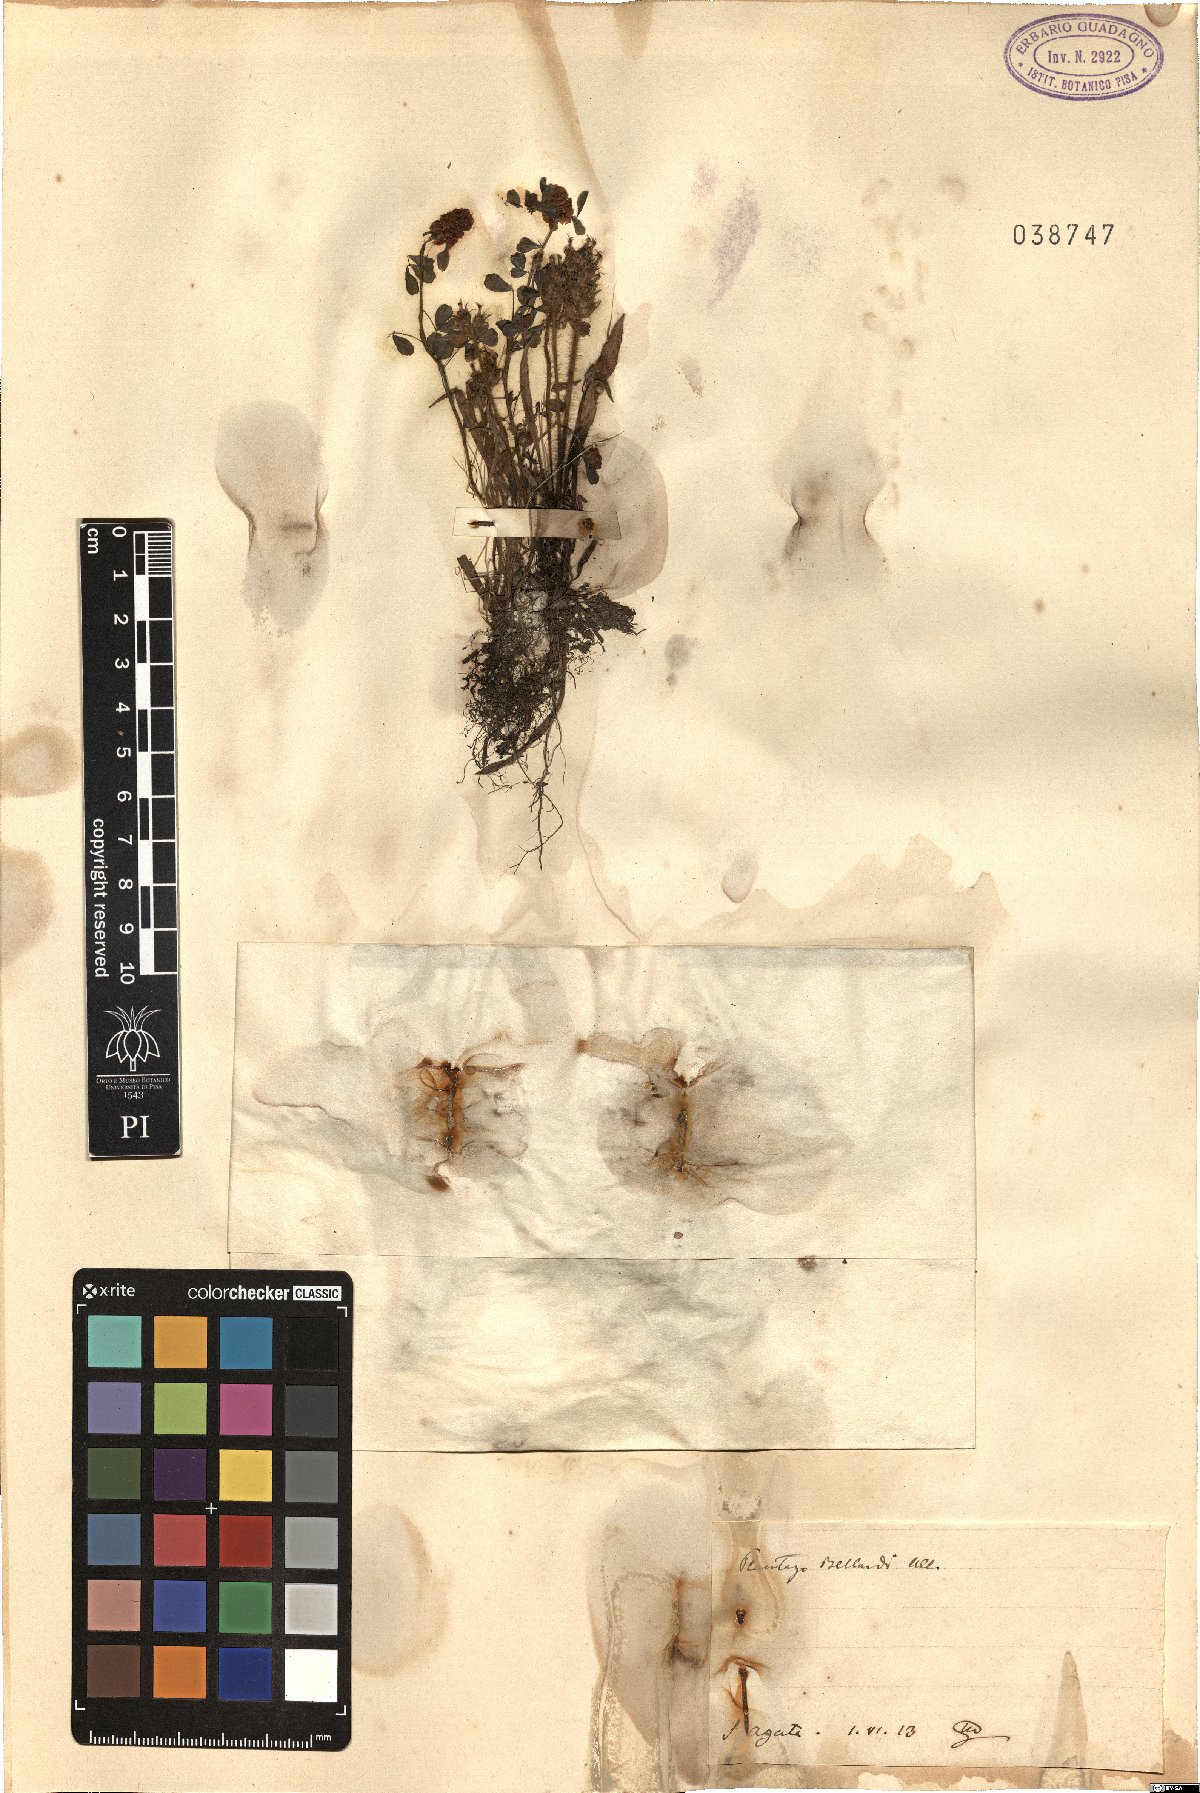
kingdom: Plantae
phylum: Tracheophyta
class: Magnoliopsida
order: Lamiales
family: Plantaginaceae
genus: Plantago
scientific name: Plantago bellardii
